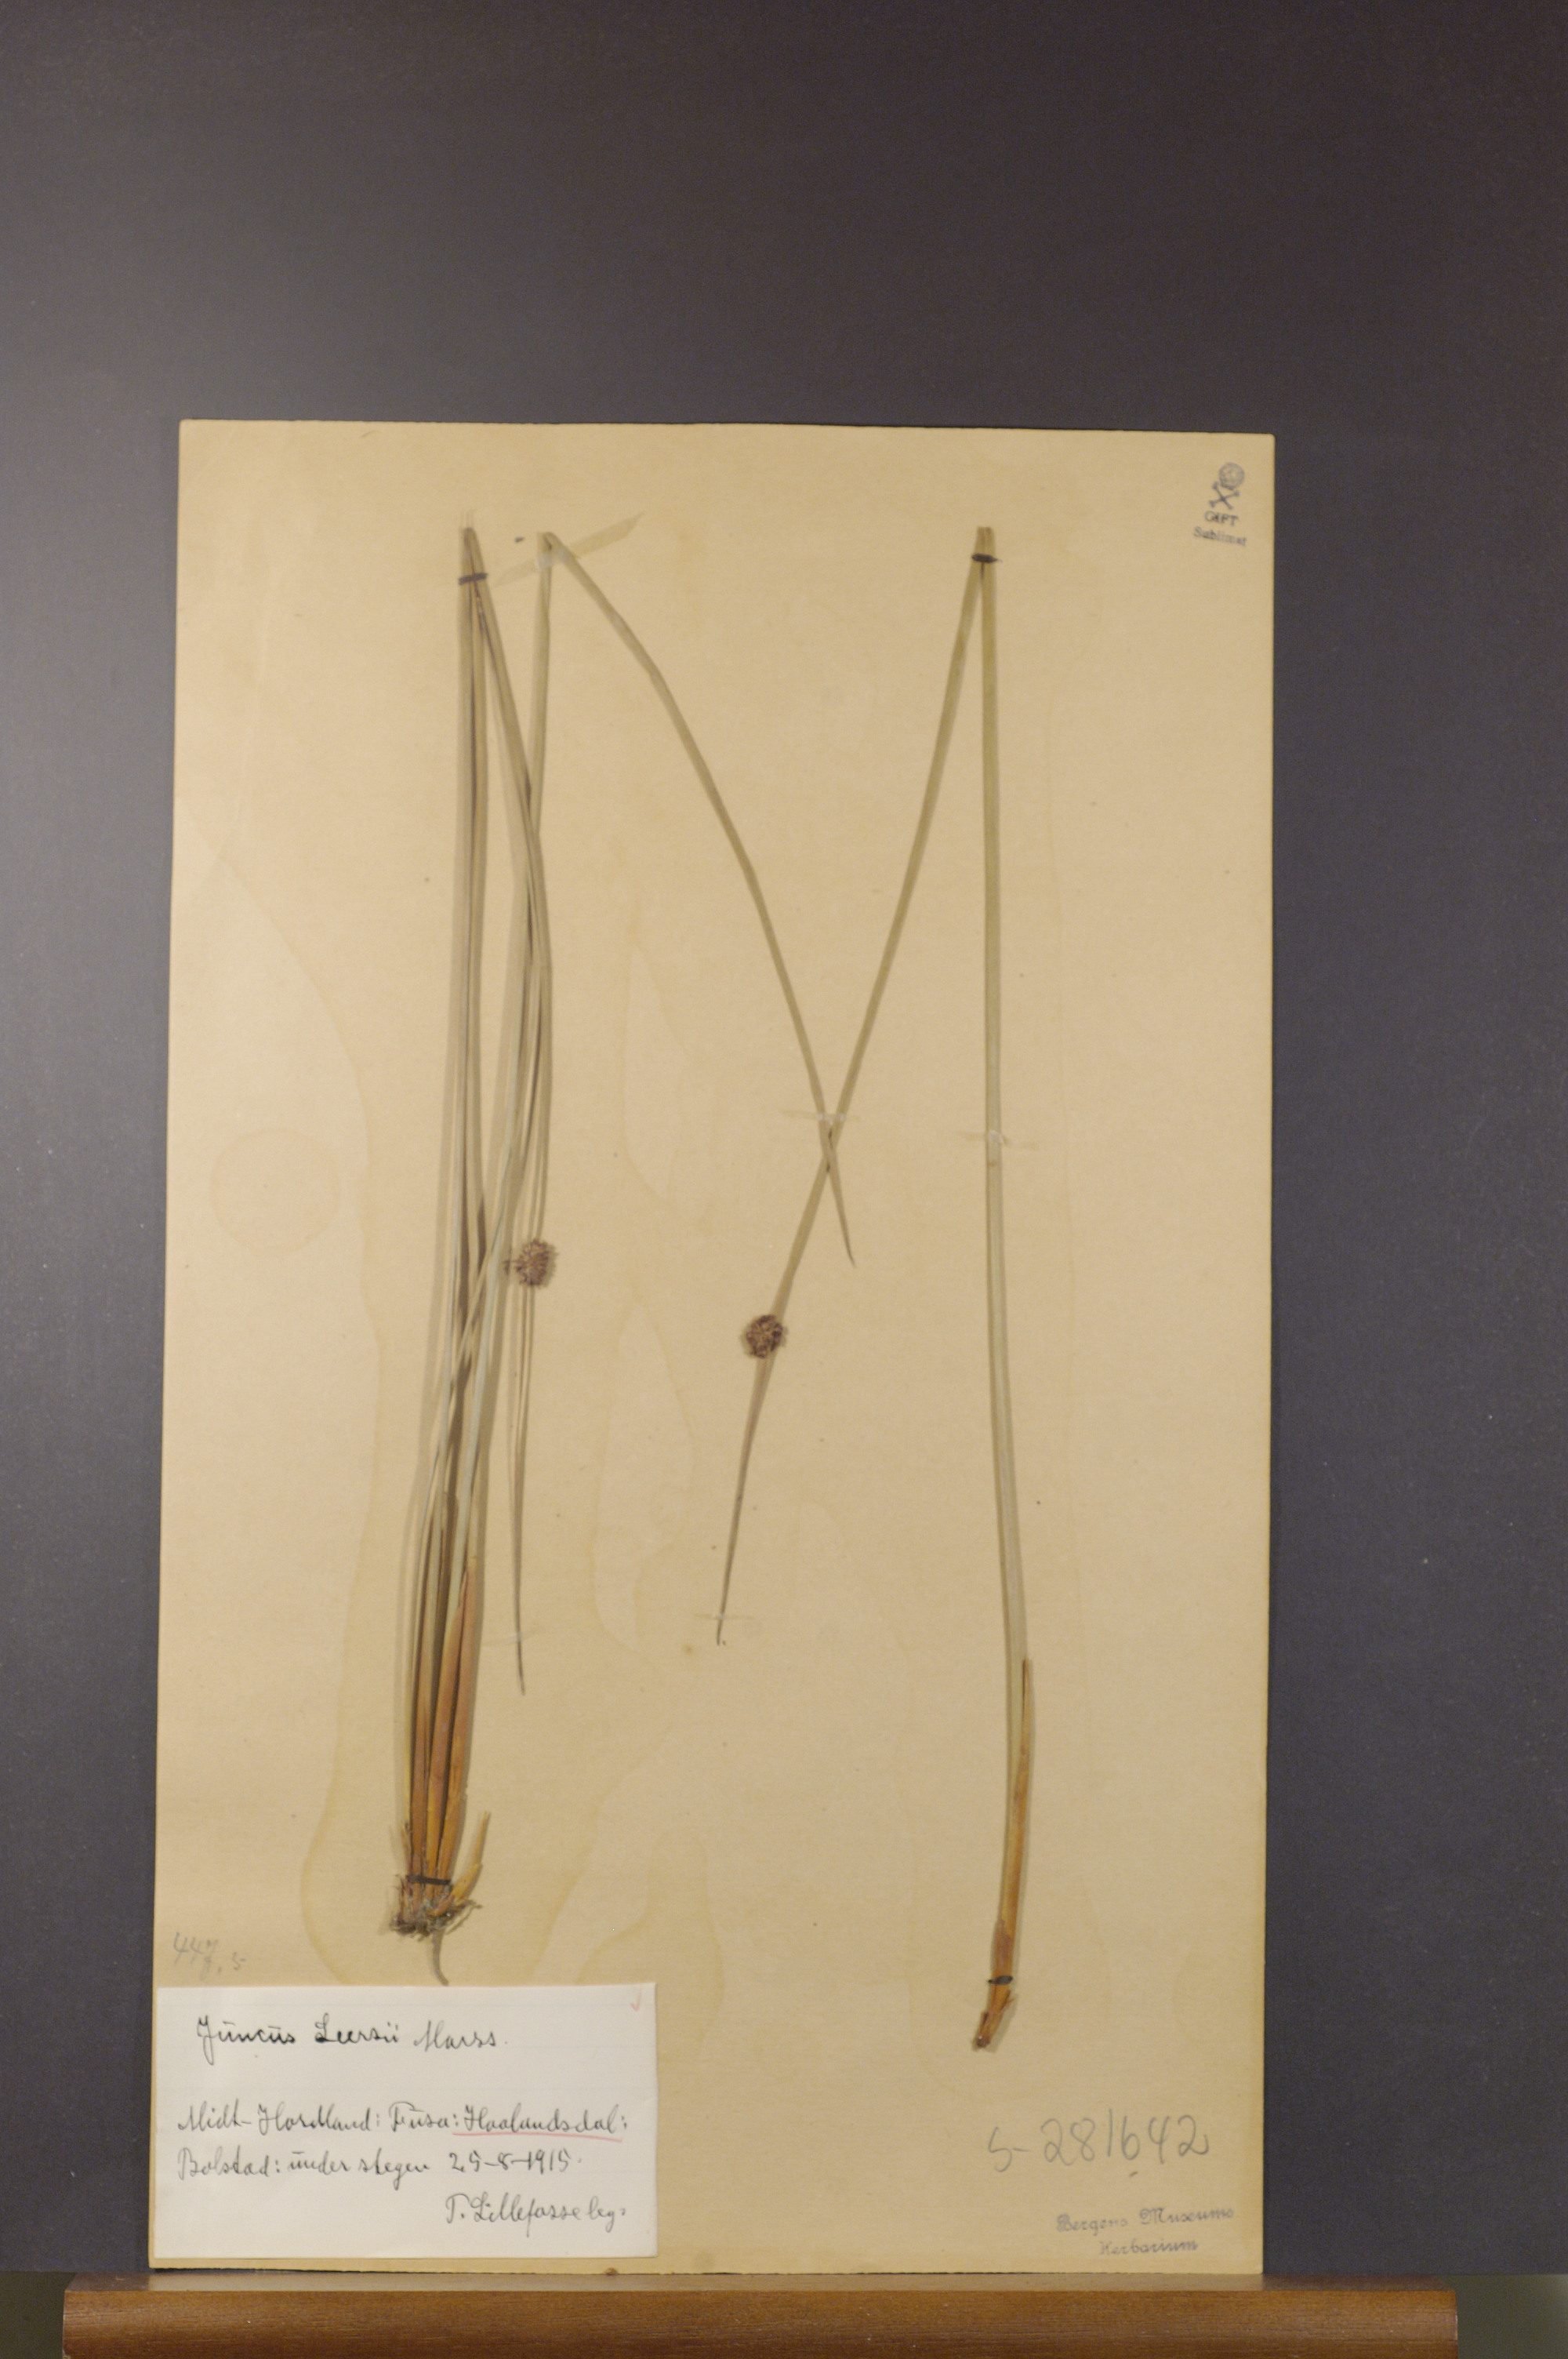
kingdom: Plantae
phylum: Tracheophyta
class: Liliopsida
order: Poales
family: Juncaceae
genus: Juncus
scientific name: Juncus conglomeratus
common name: Compact rush
